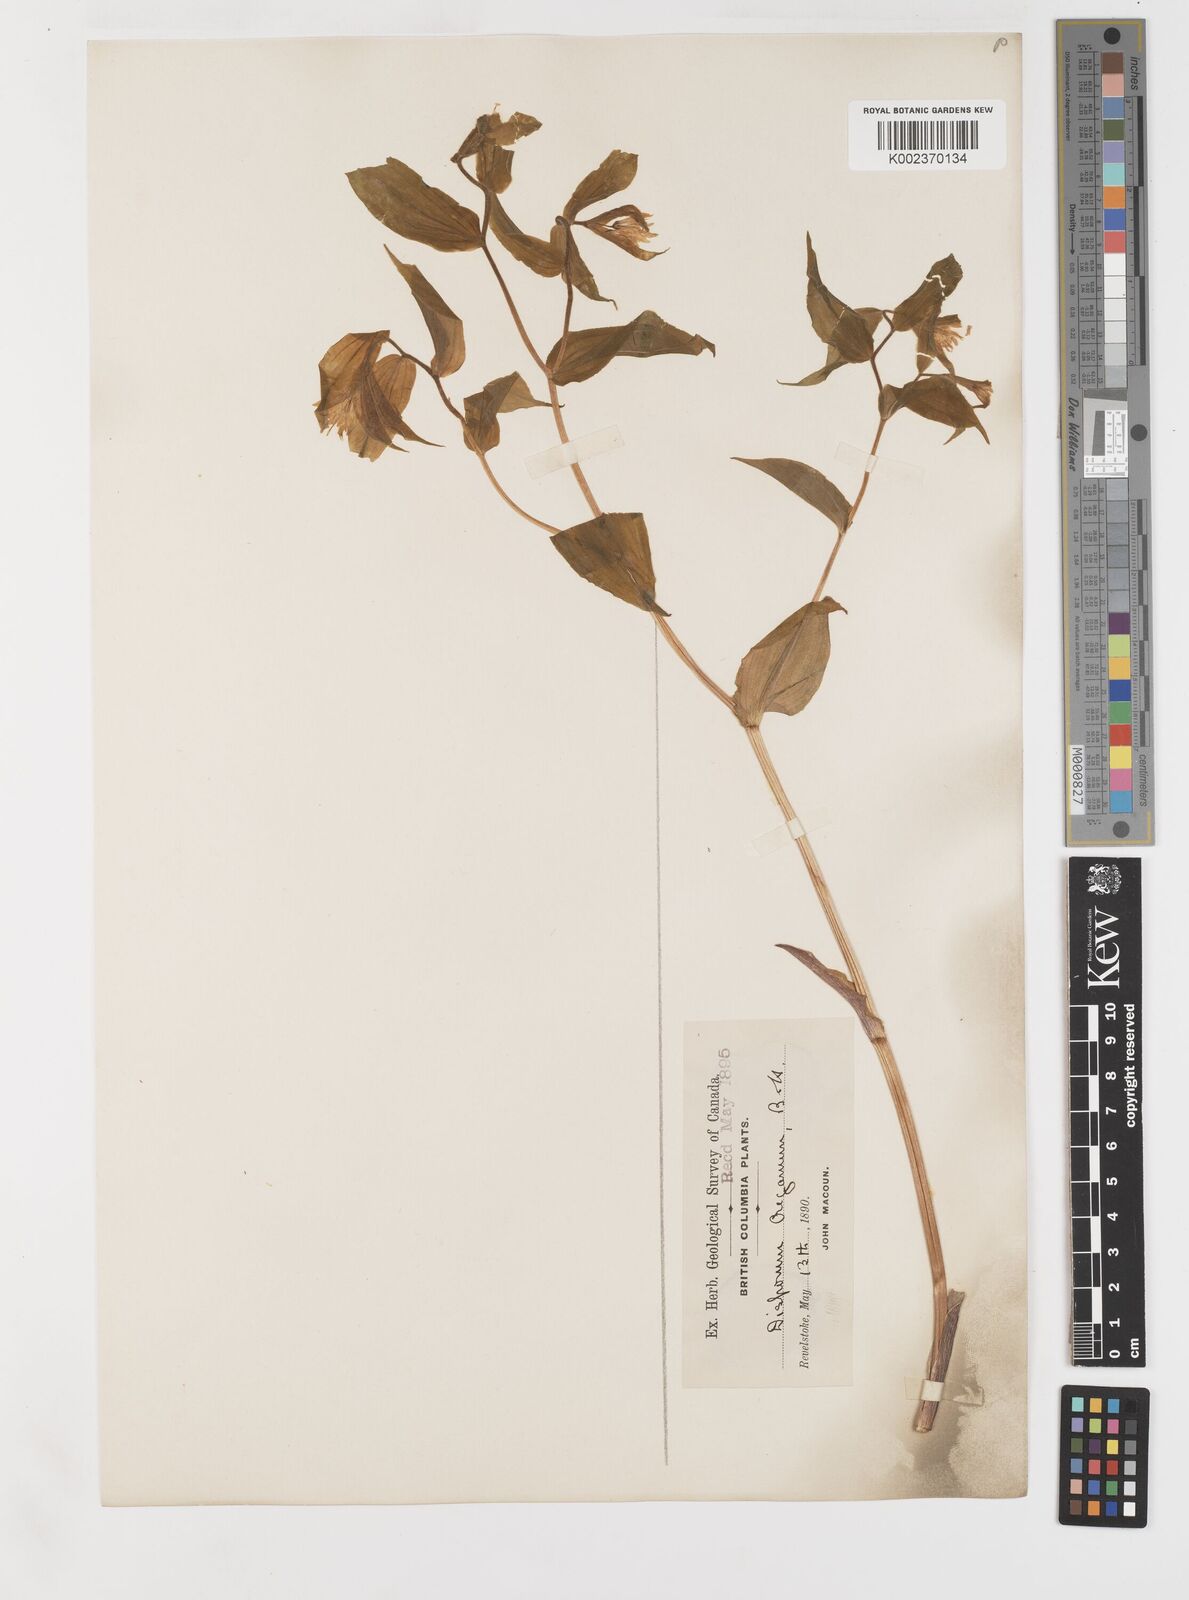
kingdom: Plantae
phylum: Tracheophyta
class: Liliopsida
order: Liliales
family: Liliaceae
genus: Prosartes
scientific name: Prosartes hookeri
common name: Fairy-bells
